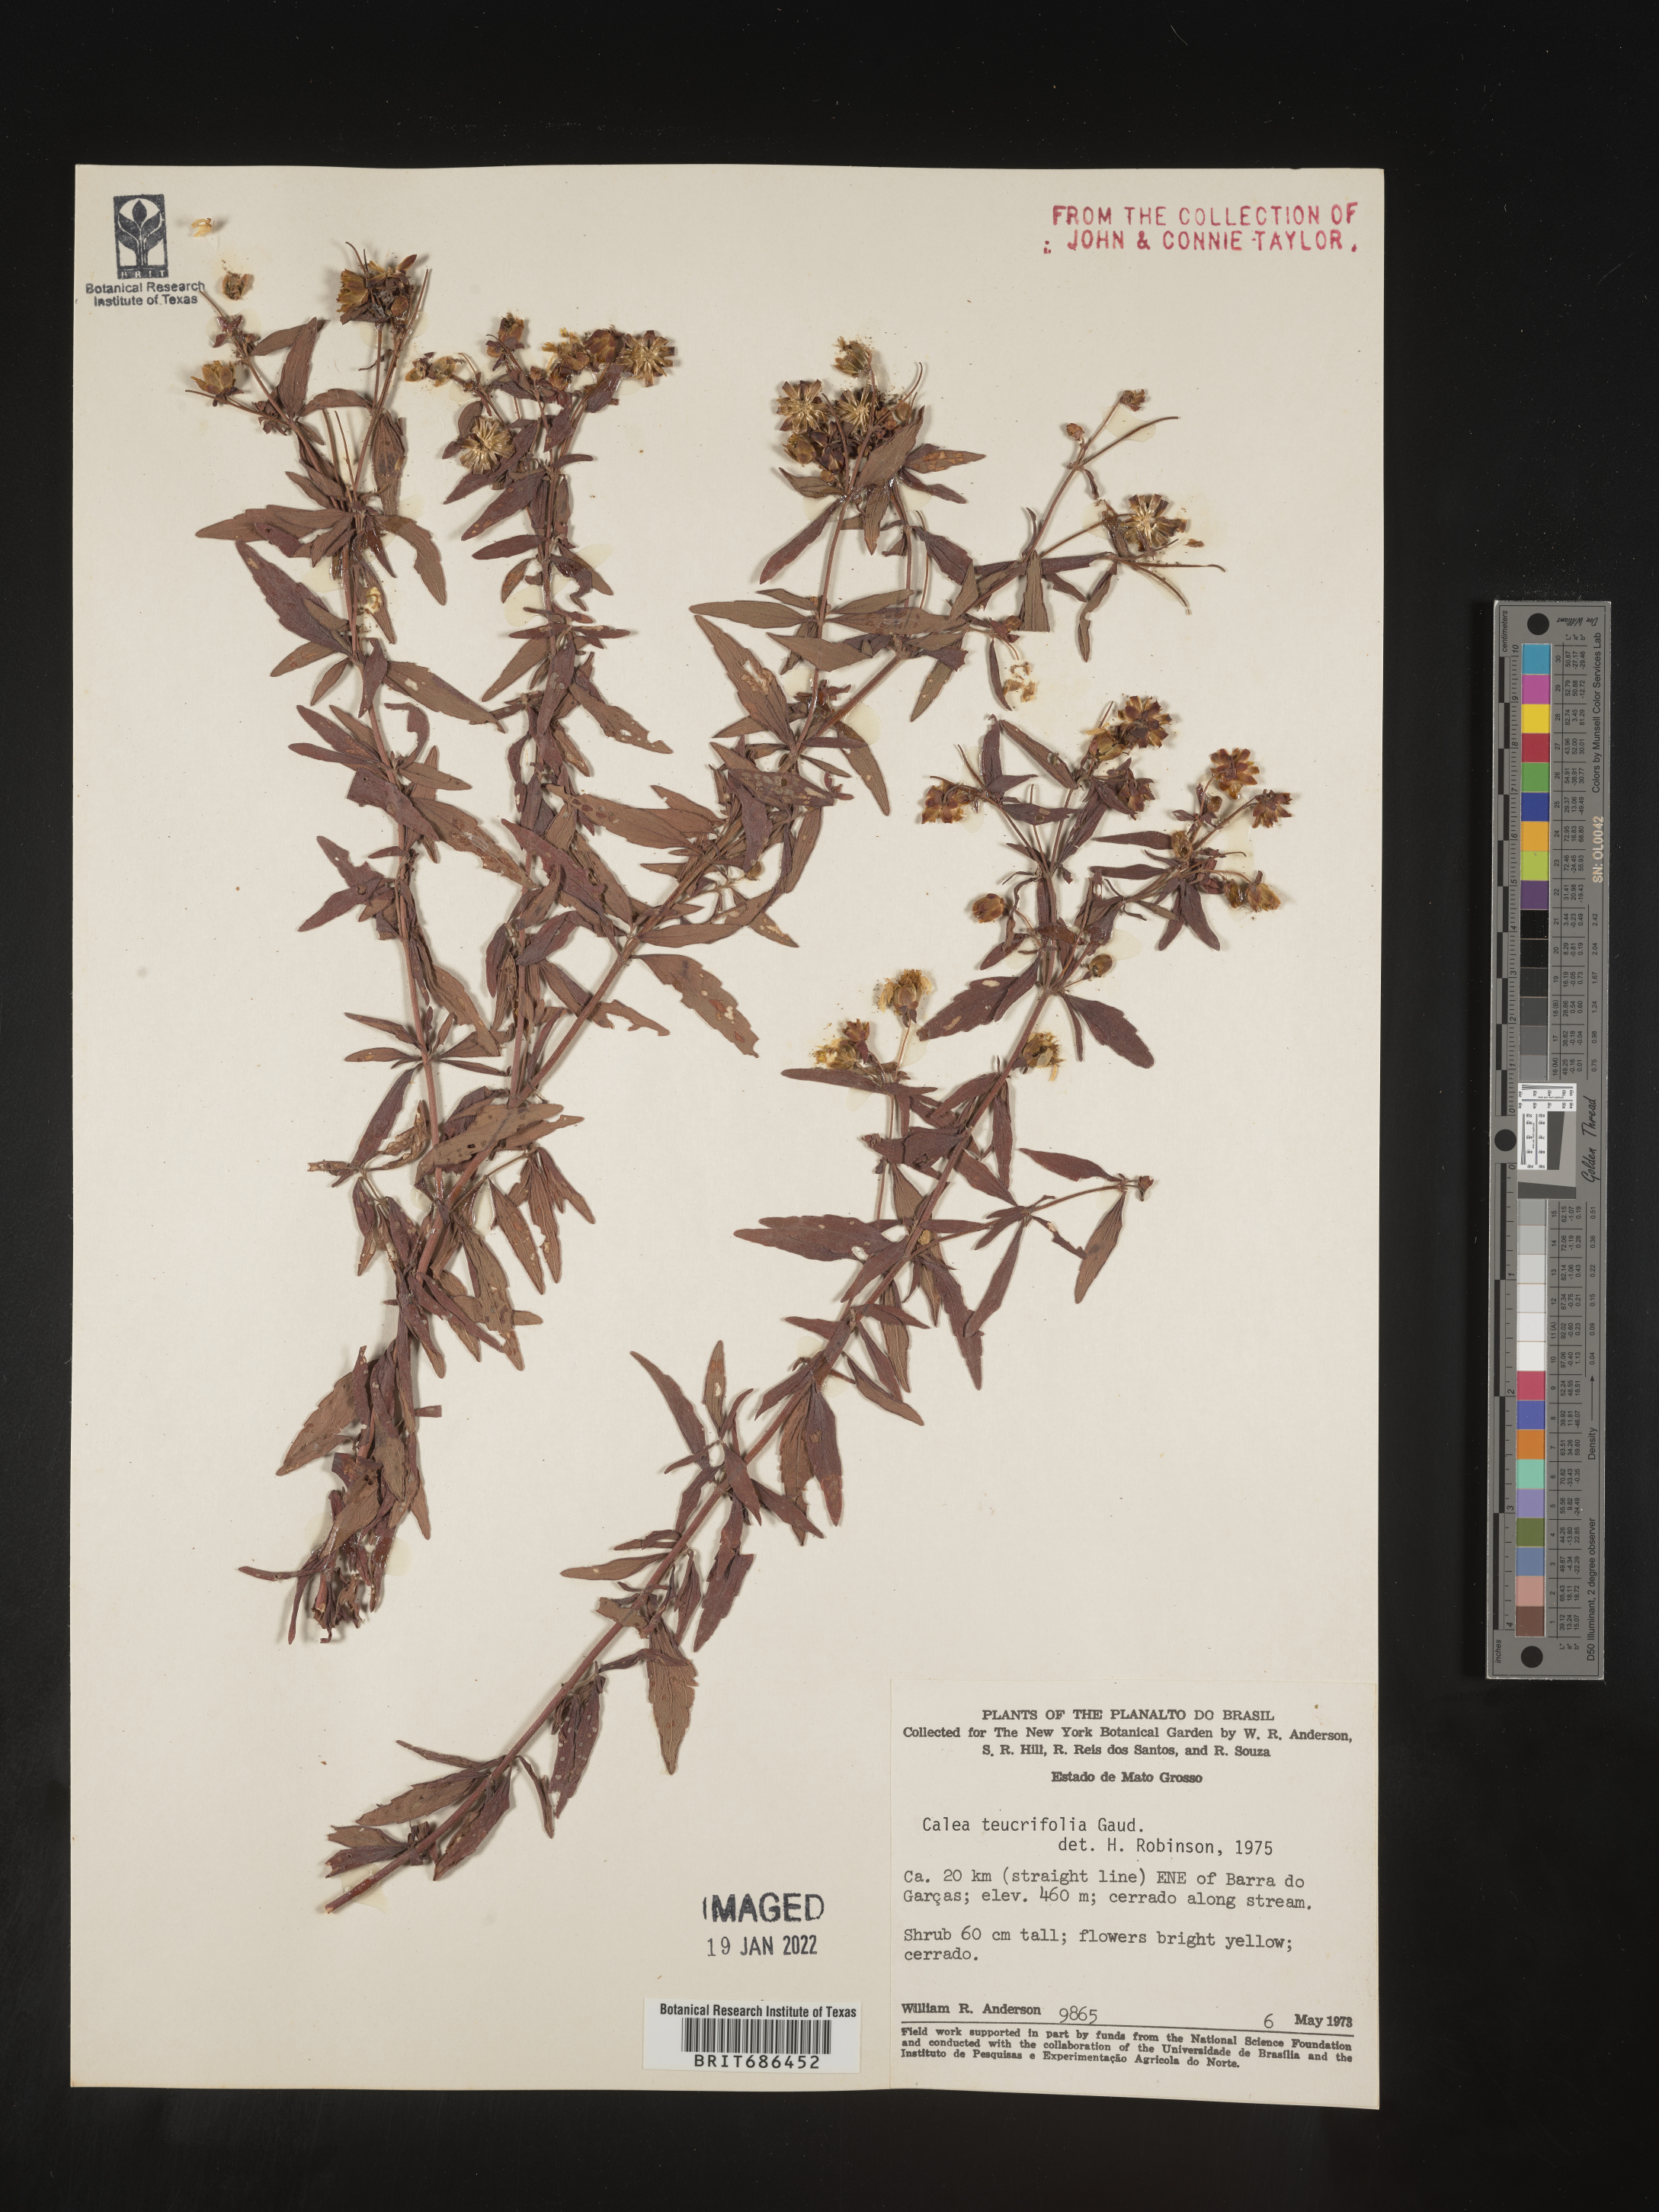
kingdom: Plantae
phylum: Tracheophyta
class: Magnoliopsida
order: Asterales
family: Asteraceae
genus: Calea
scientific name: Calea
